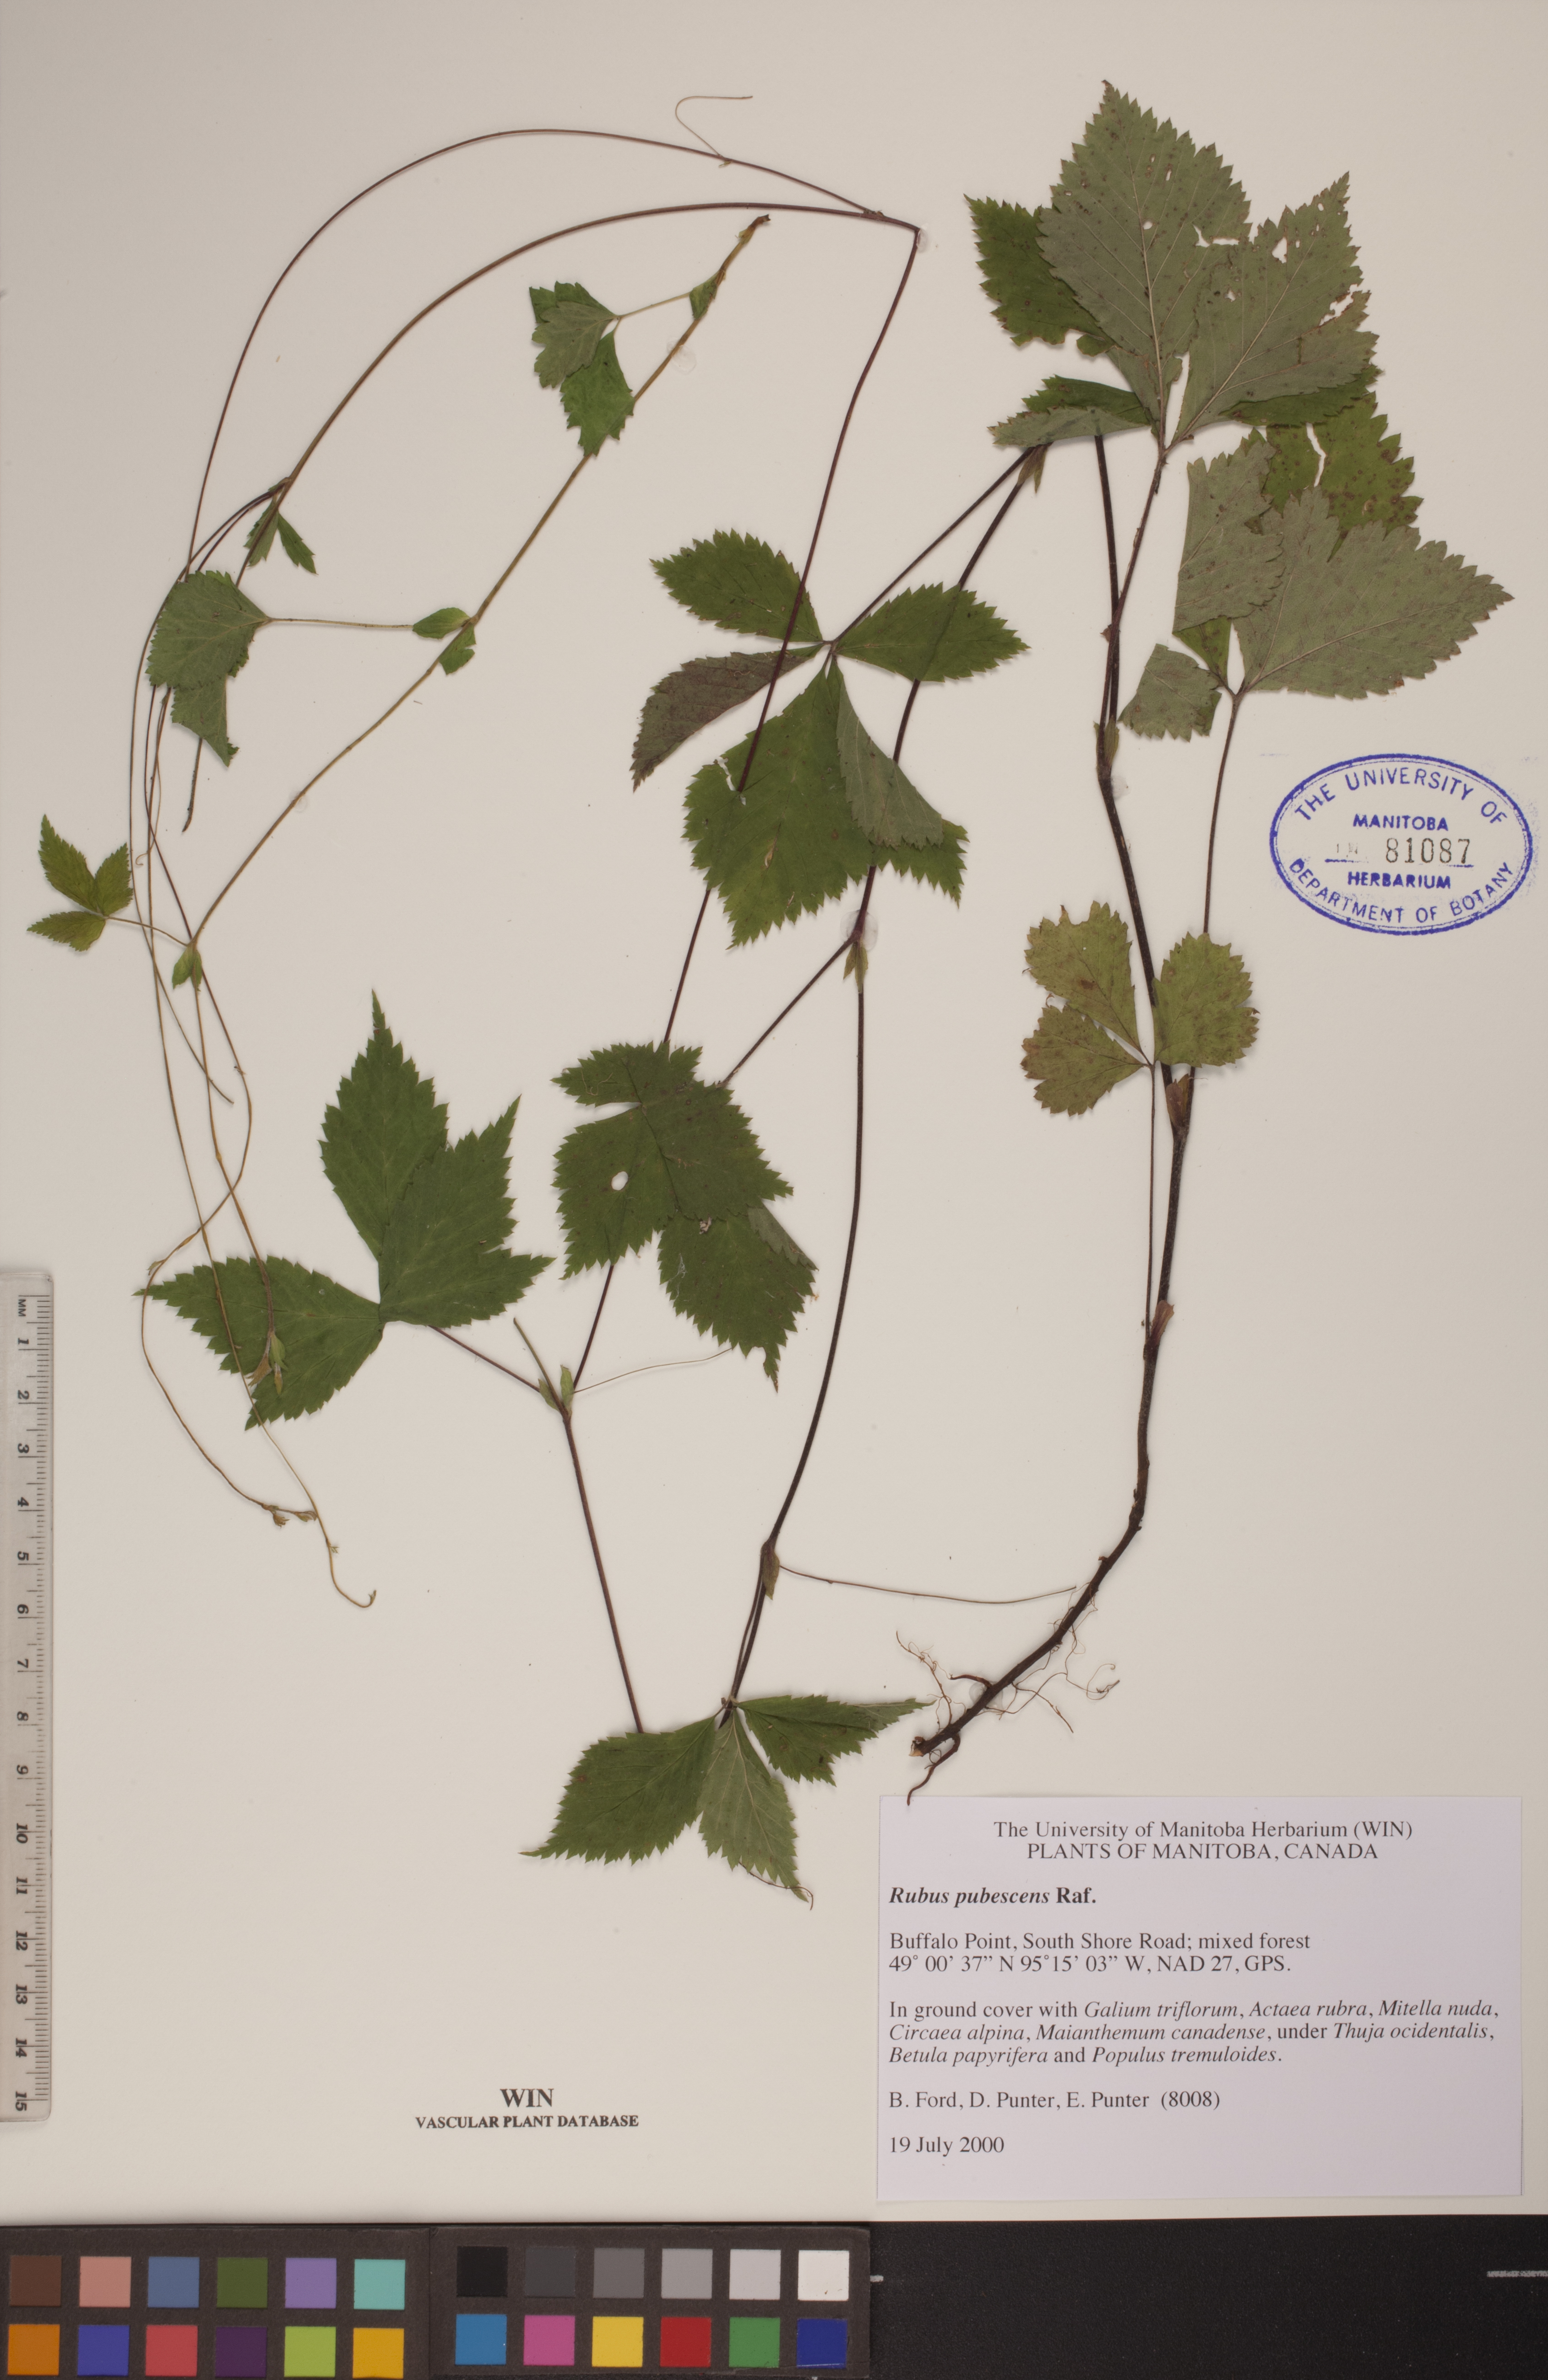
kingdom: Plantae
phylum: Tracheophyta
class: Magnoliopsida
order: Rosales
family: Rosaceae
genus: Rubus
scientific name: Rubus pubescens
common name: Dwarf raspberry
